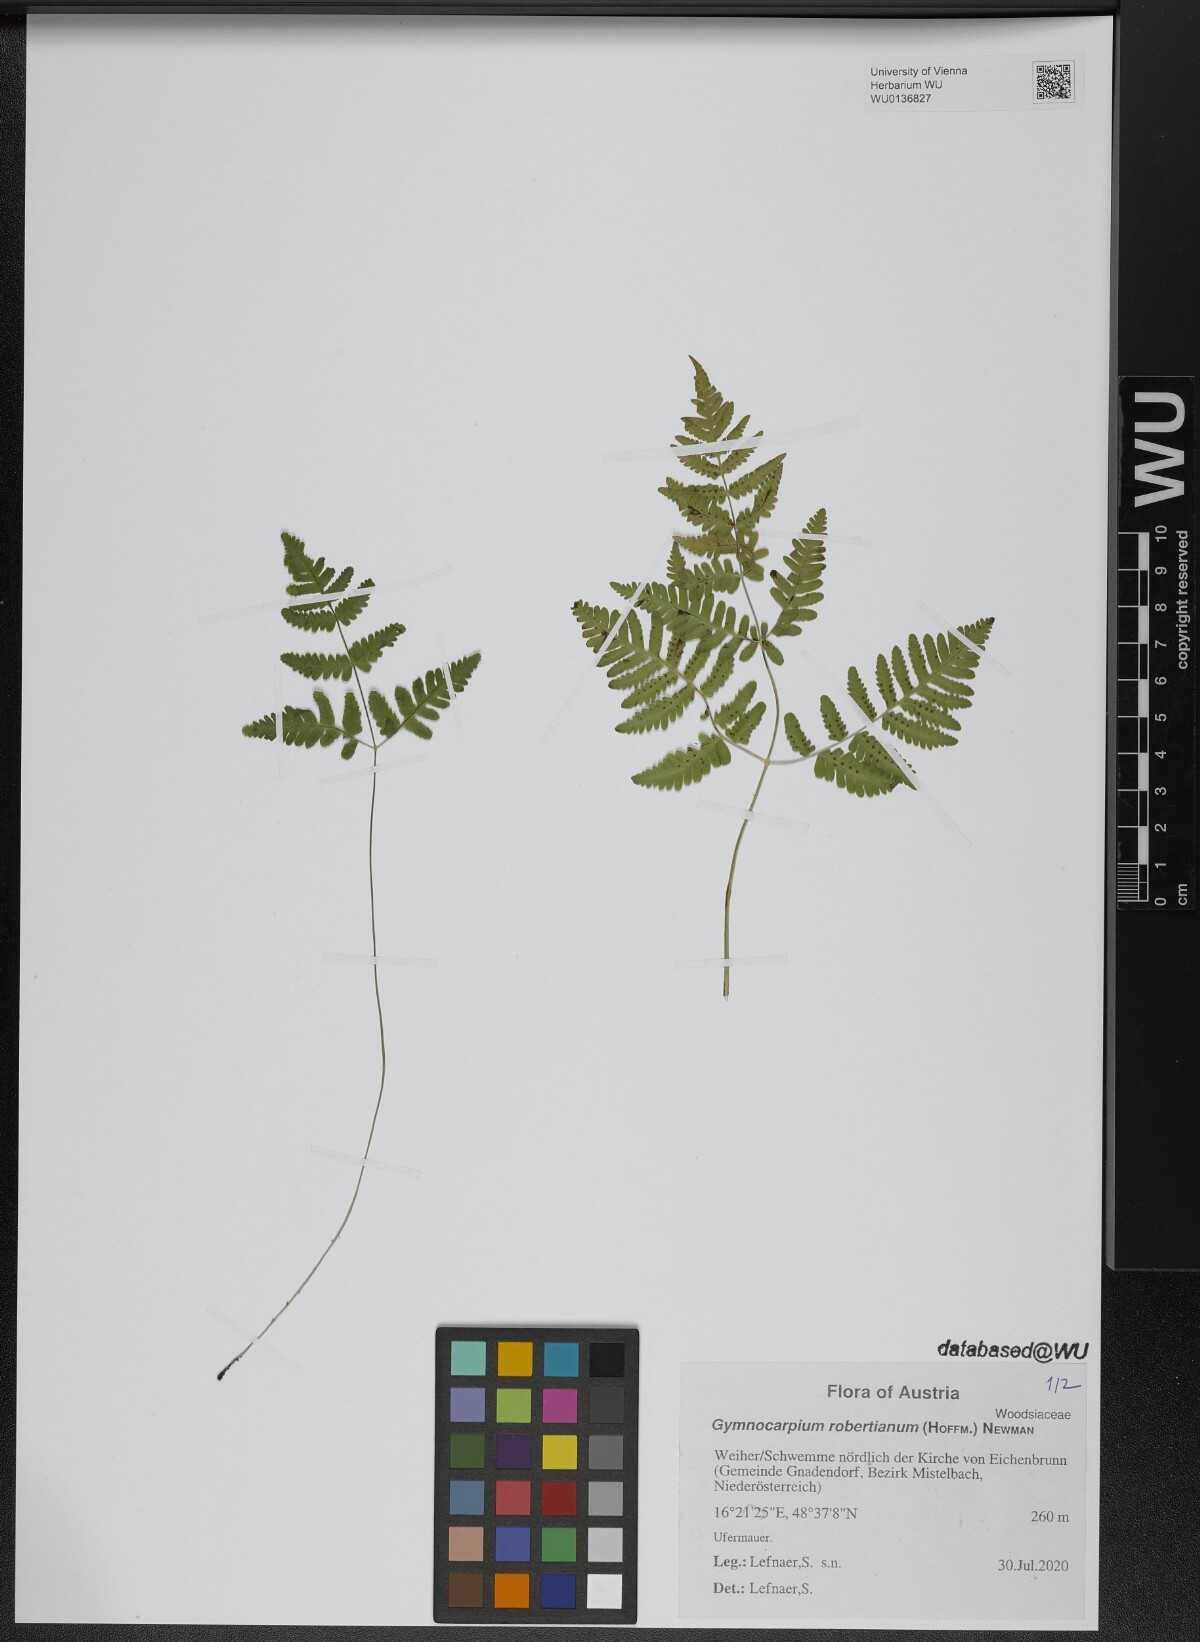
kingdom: Plantae
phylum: Tracheophyta
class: Polypodiopsida
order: Polypodiales
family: Cystopteridaceae
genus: Gymnocarpium
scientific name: Gymnocarpium robertianum
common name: Limestone fern
